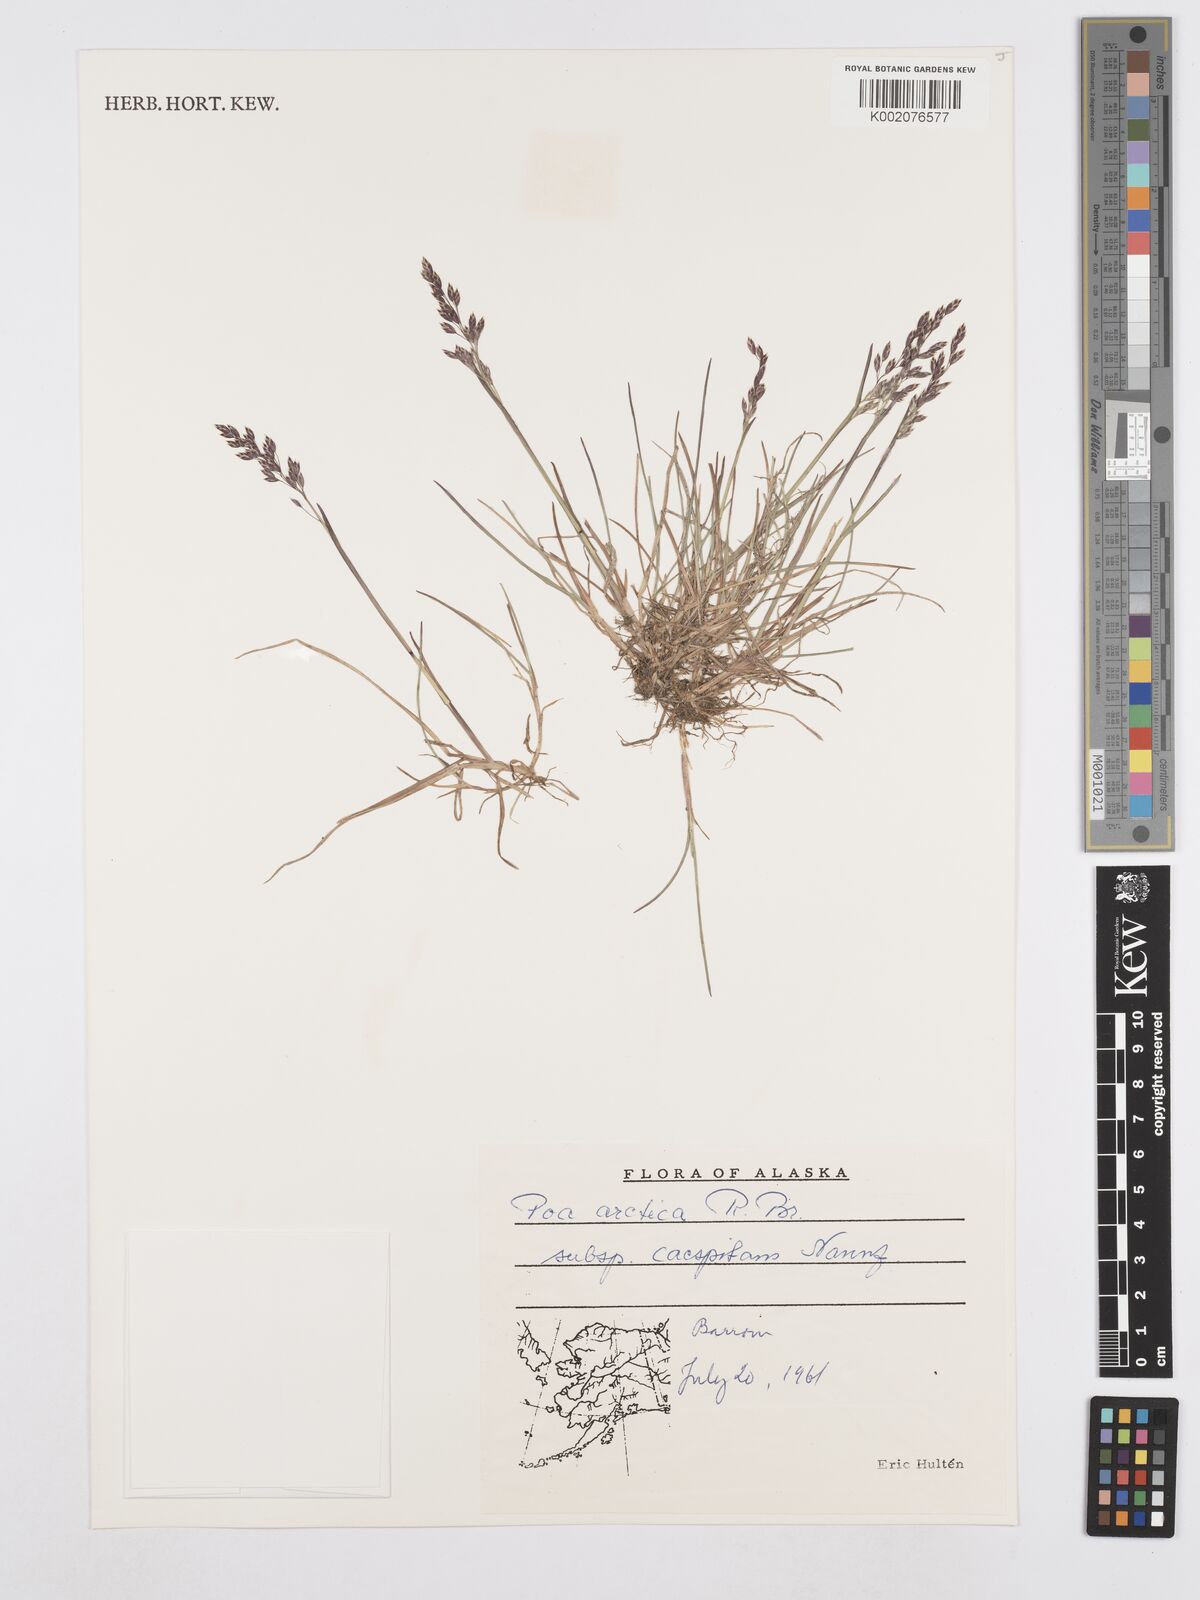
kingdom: Plantae
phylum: Tracheophyta
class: Liliopsida
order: Poales
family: Poaceae
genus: Poa
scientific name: Poa tolmatchewii
